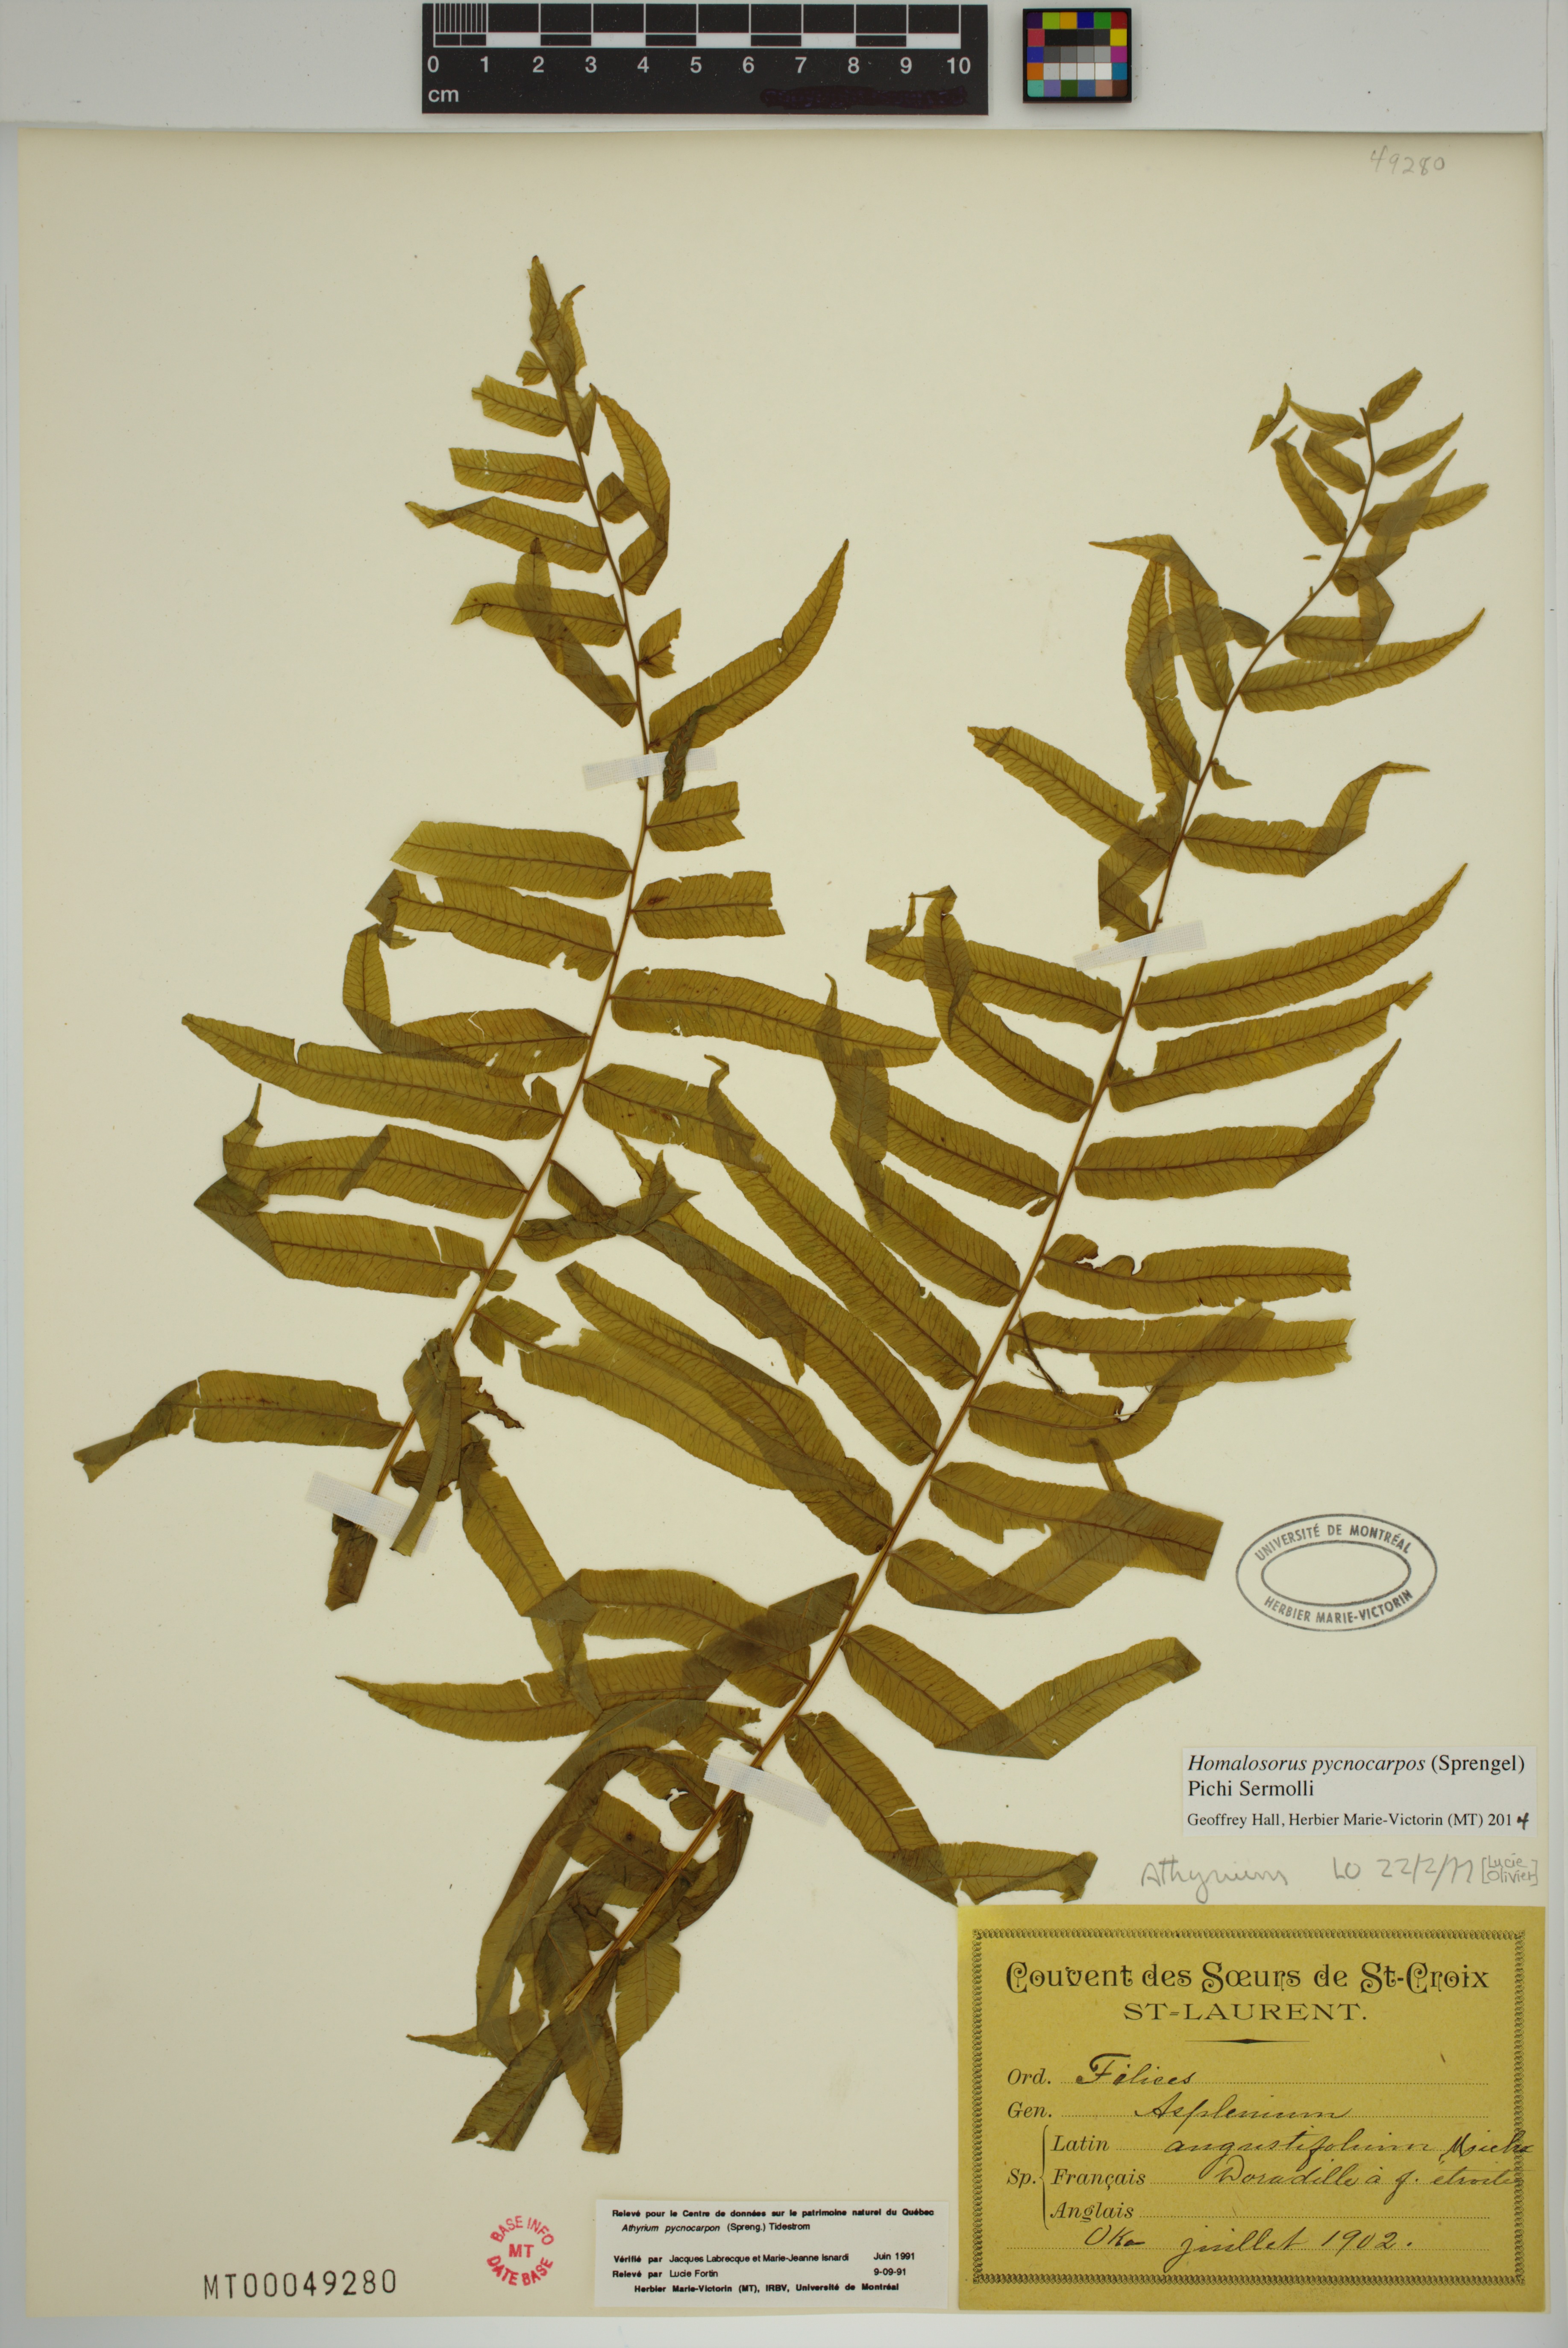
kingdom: Plantae
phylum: Tracheophyta
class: Polypodiopsida
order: Polypodiales
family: Diplaziopsidaceae
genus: Homalosorus
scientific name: Homalosorus pycnocarpos
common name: Glade fern
